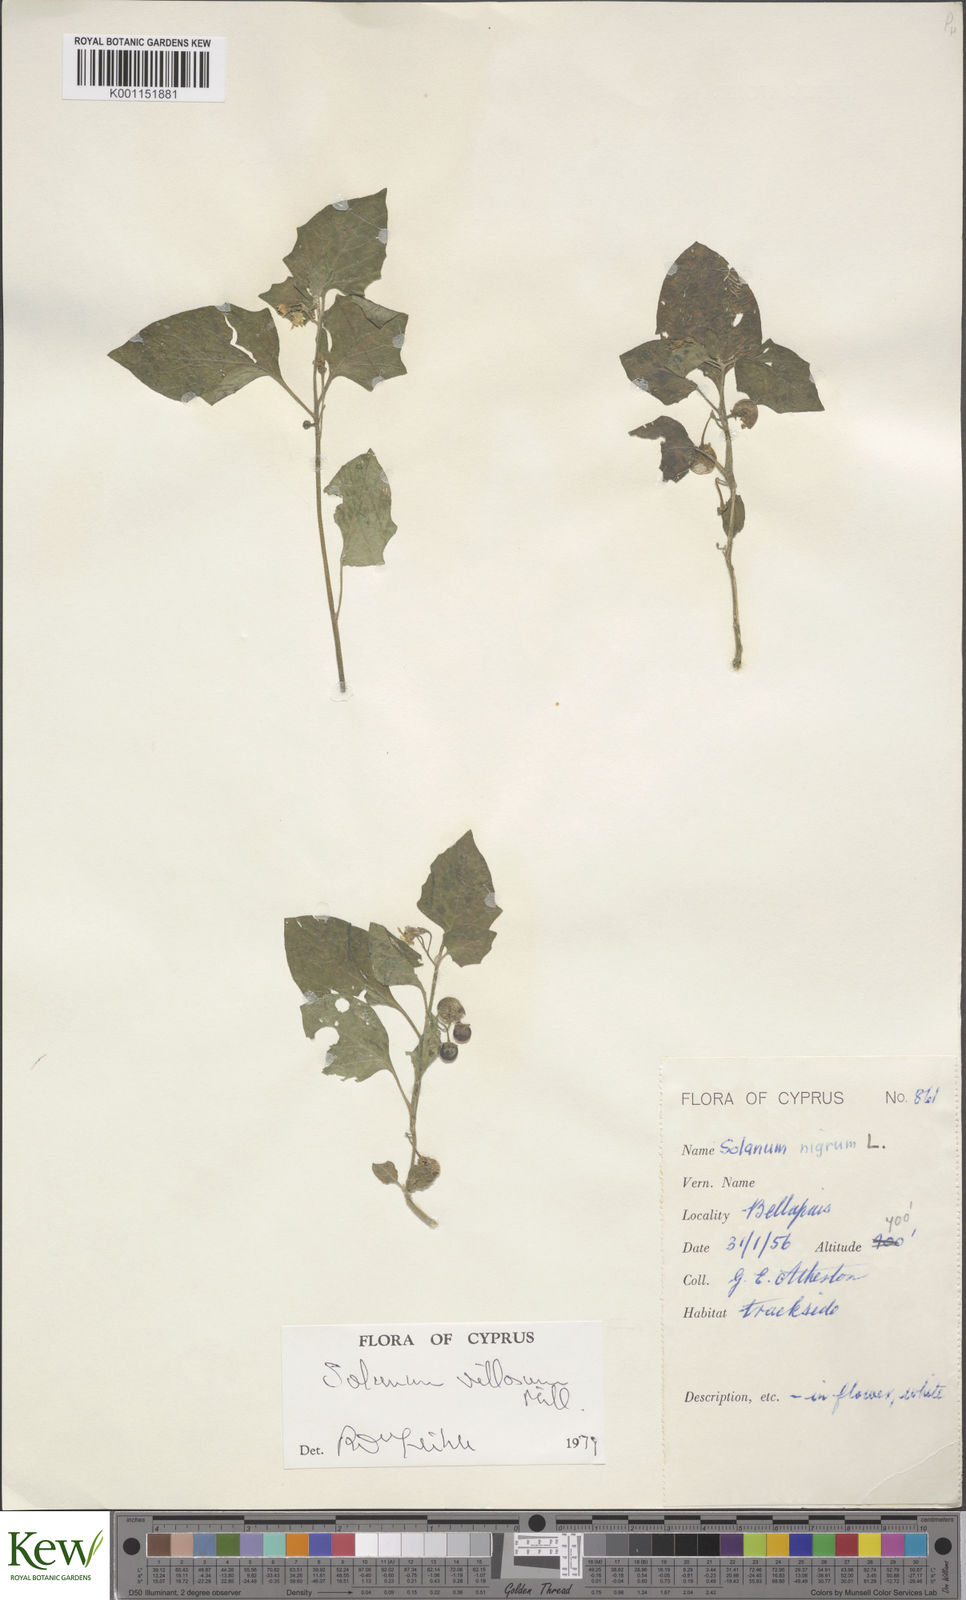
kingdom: Plantae
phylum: Tracheophyta
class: Magnoliopsida
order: Solanales
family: Solanaceae
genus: Solanum
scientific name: Solanum villosum
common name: Red nightshade
